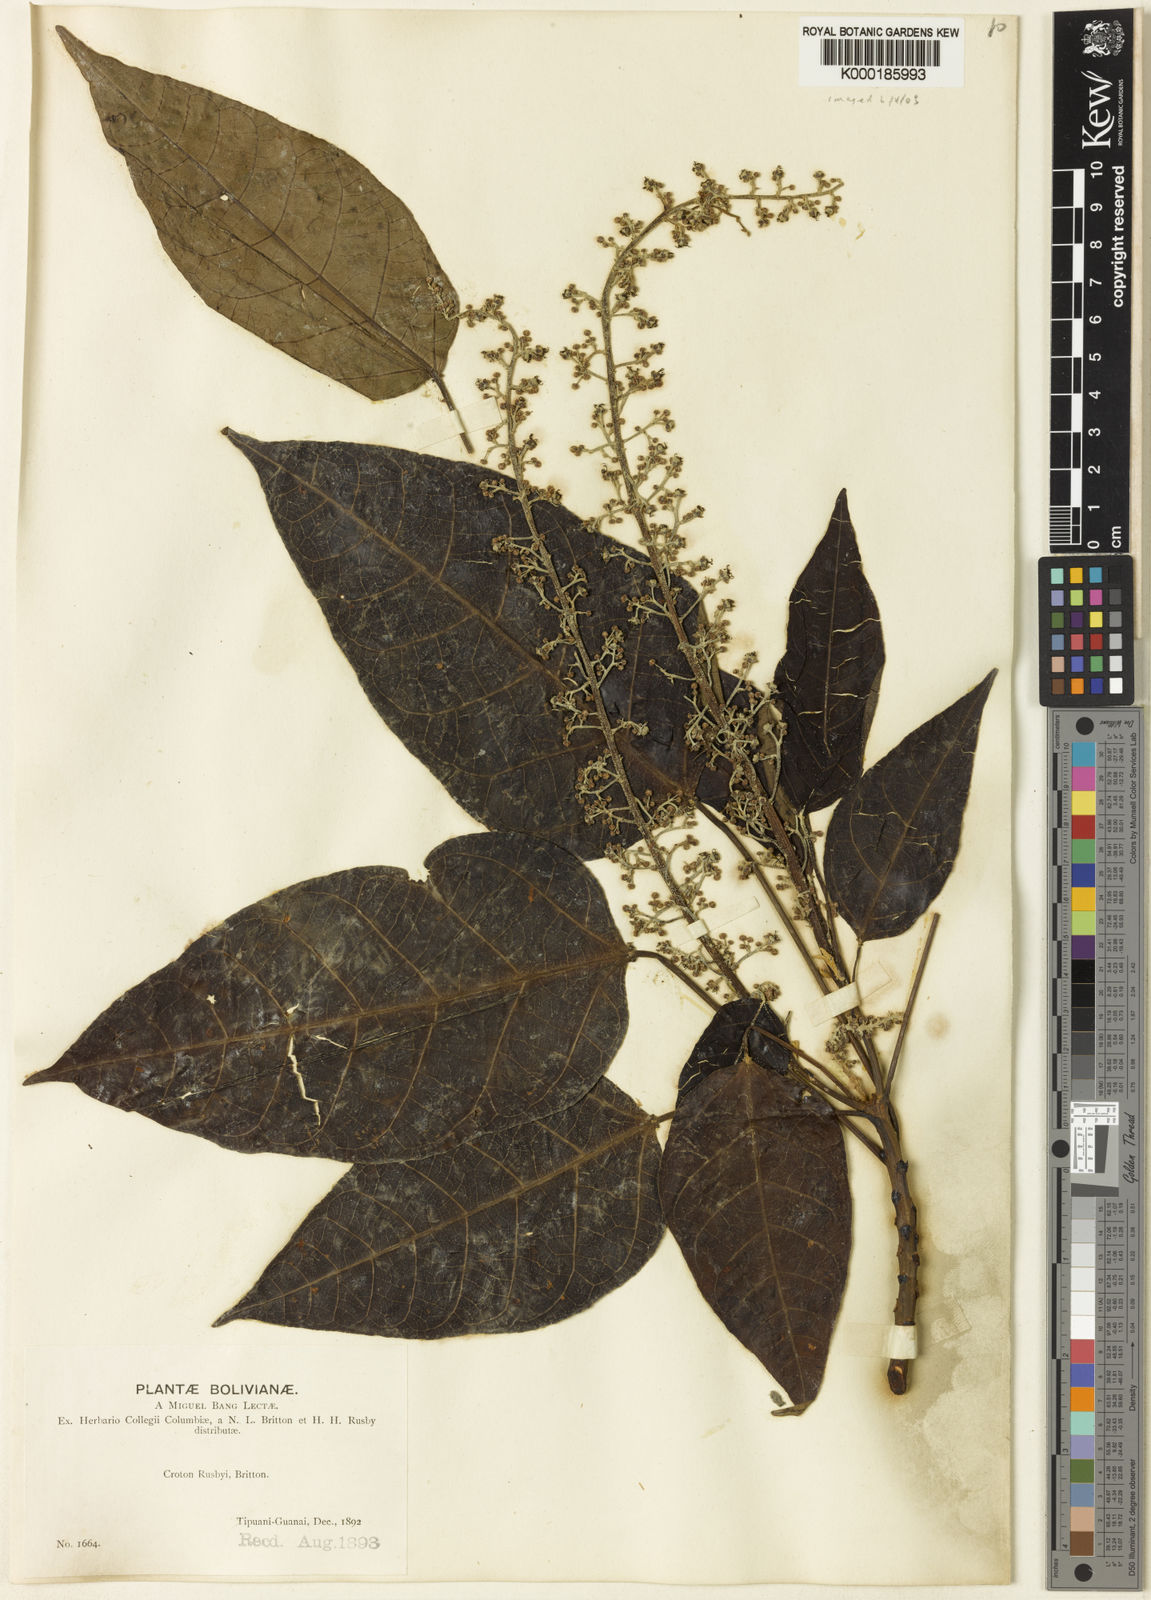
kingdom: Plantae
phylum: Tracheophyta
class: Magnoliopsida
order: Malpighiales
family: Euphorbiaceae
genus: Croton
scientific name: Croton rusbyi
